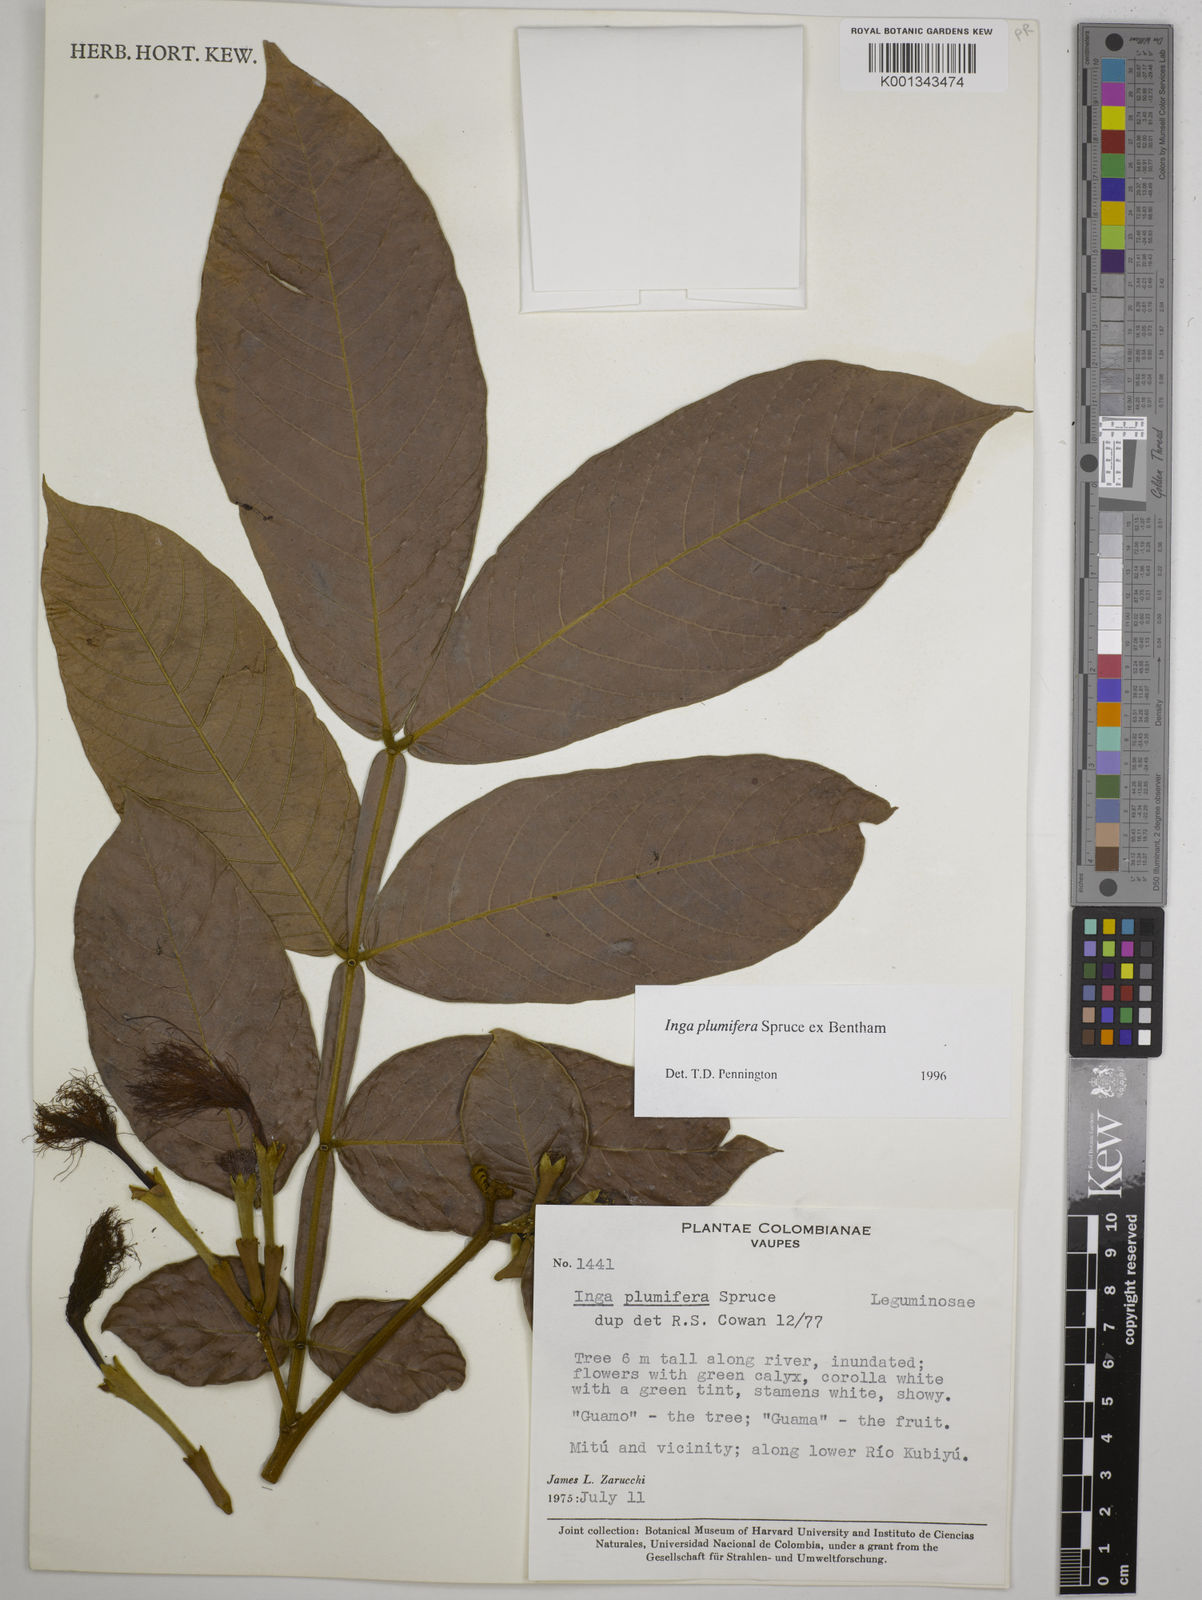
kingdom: Plantae
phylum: Tracheophyta
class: Magnoliopsida
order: Fabales
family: Fabaceae
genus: Inga
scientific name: Inga plumifera
